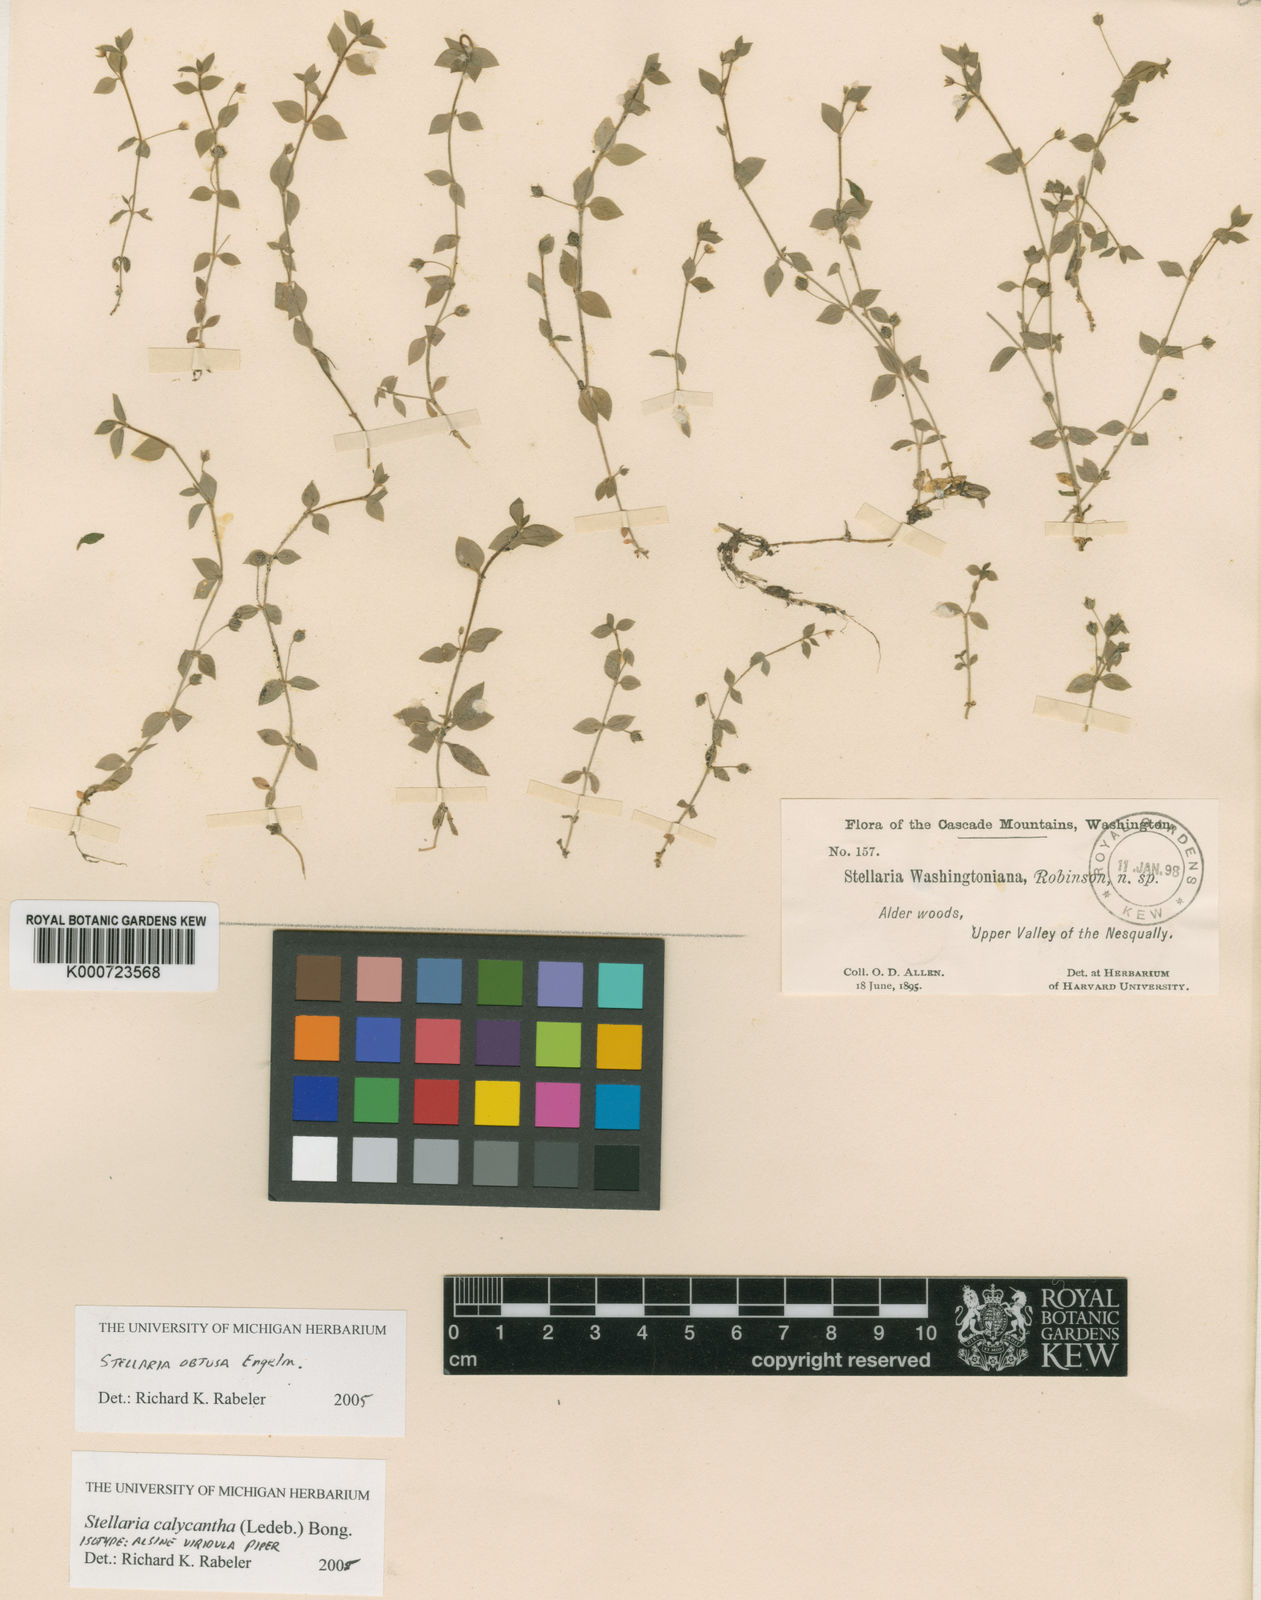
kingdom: Plantae
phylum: Tracheophyta
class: Magnoliopsida
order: Caryophyllales
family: Caryophyllaceae
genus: Stellaria
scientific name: Stellaria calycantha
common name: Northern starwort
